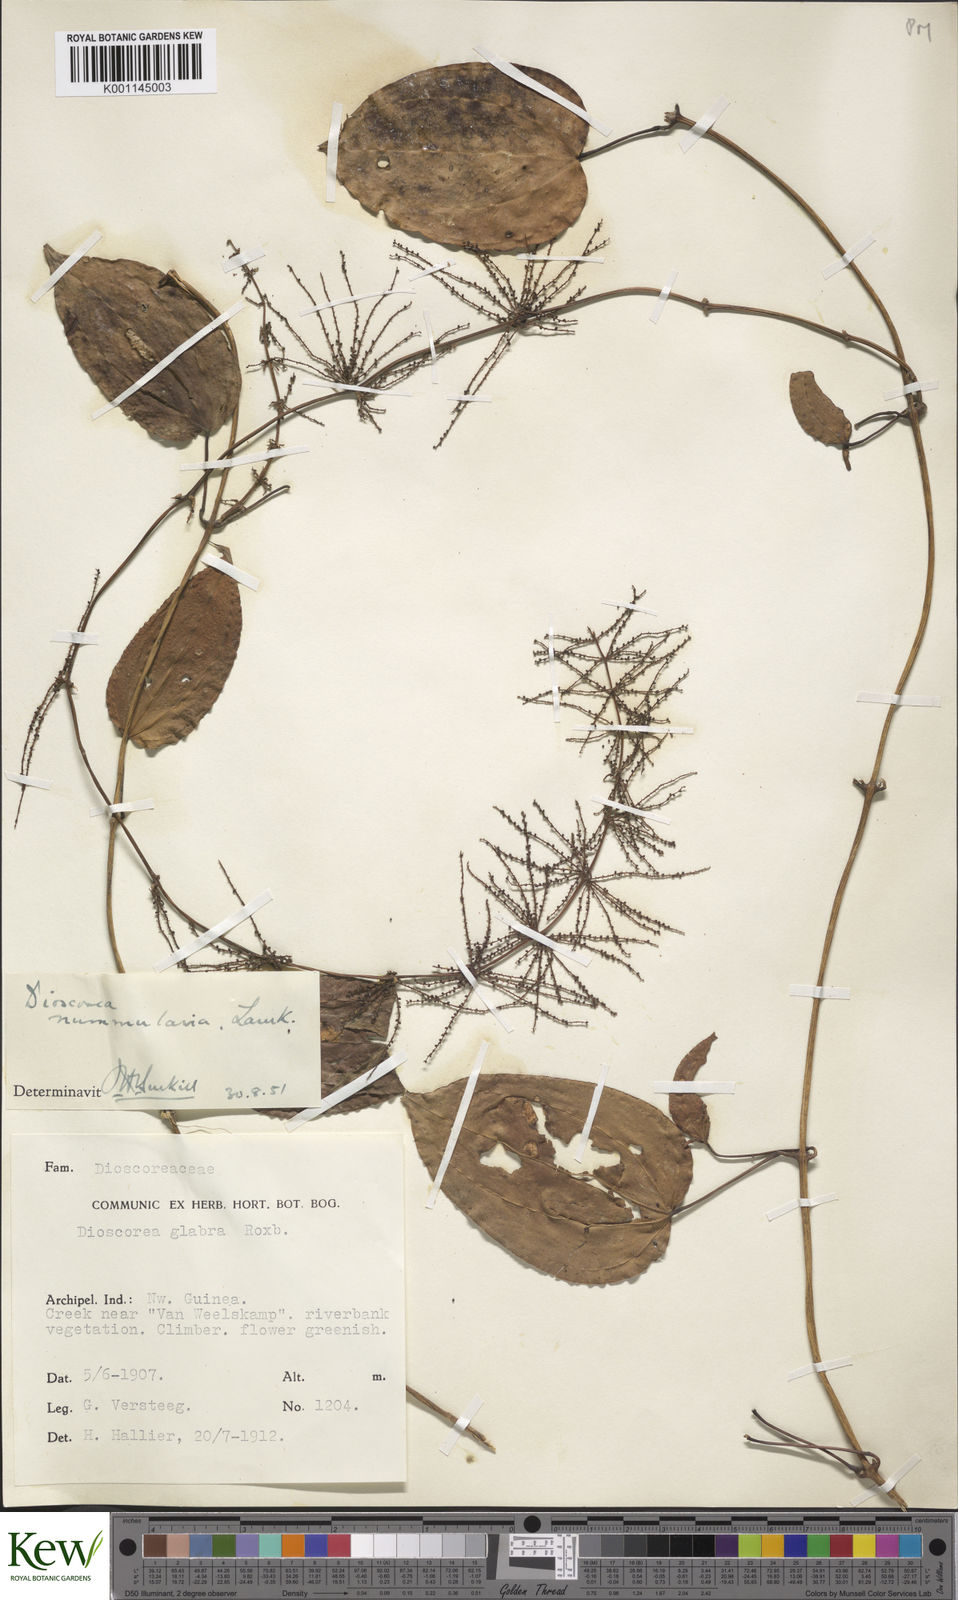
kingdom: Plantae
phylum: Tracheophyta
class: Liliopsida
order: Dioscoreales
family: Dioscoreaceae
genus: Dioscorea
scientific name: Dioscorea nummularia
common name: Pacific yam
